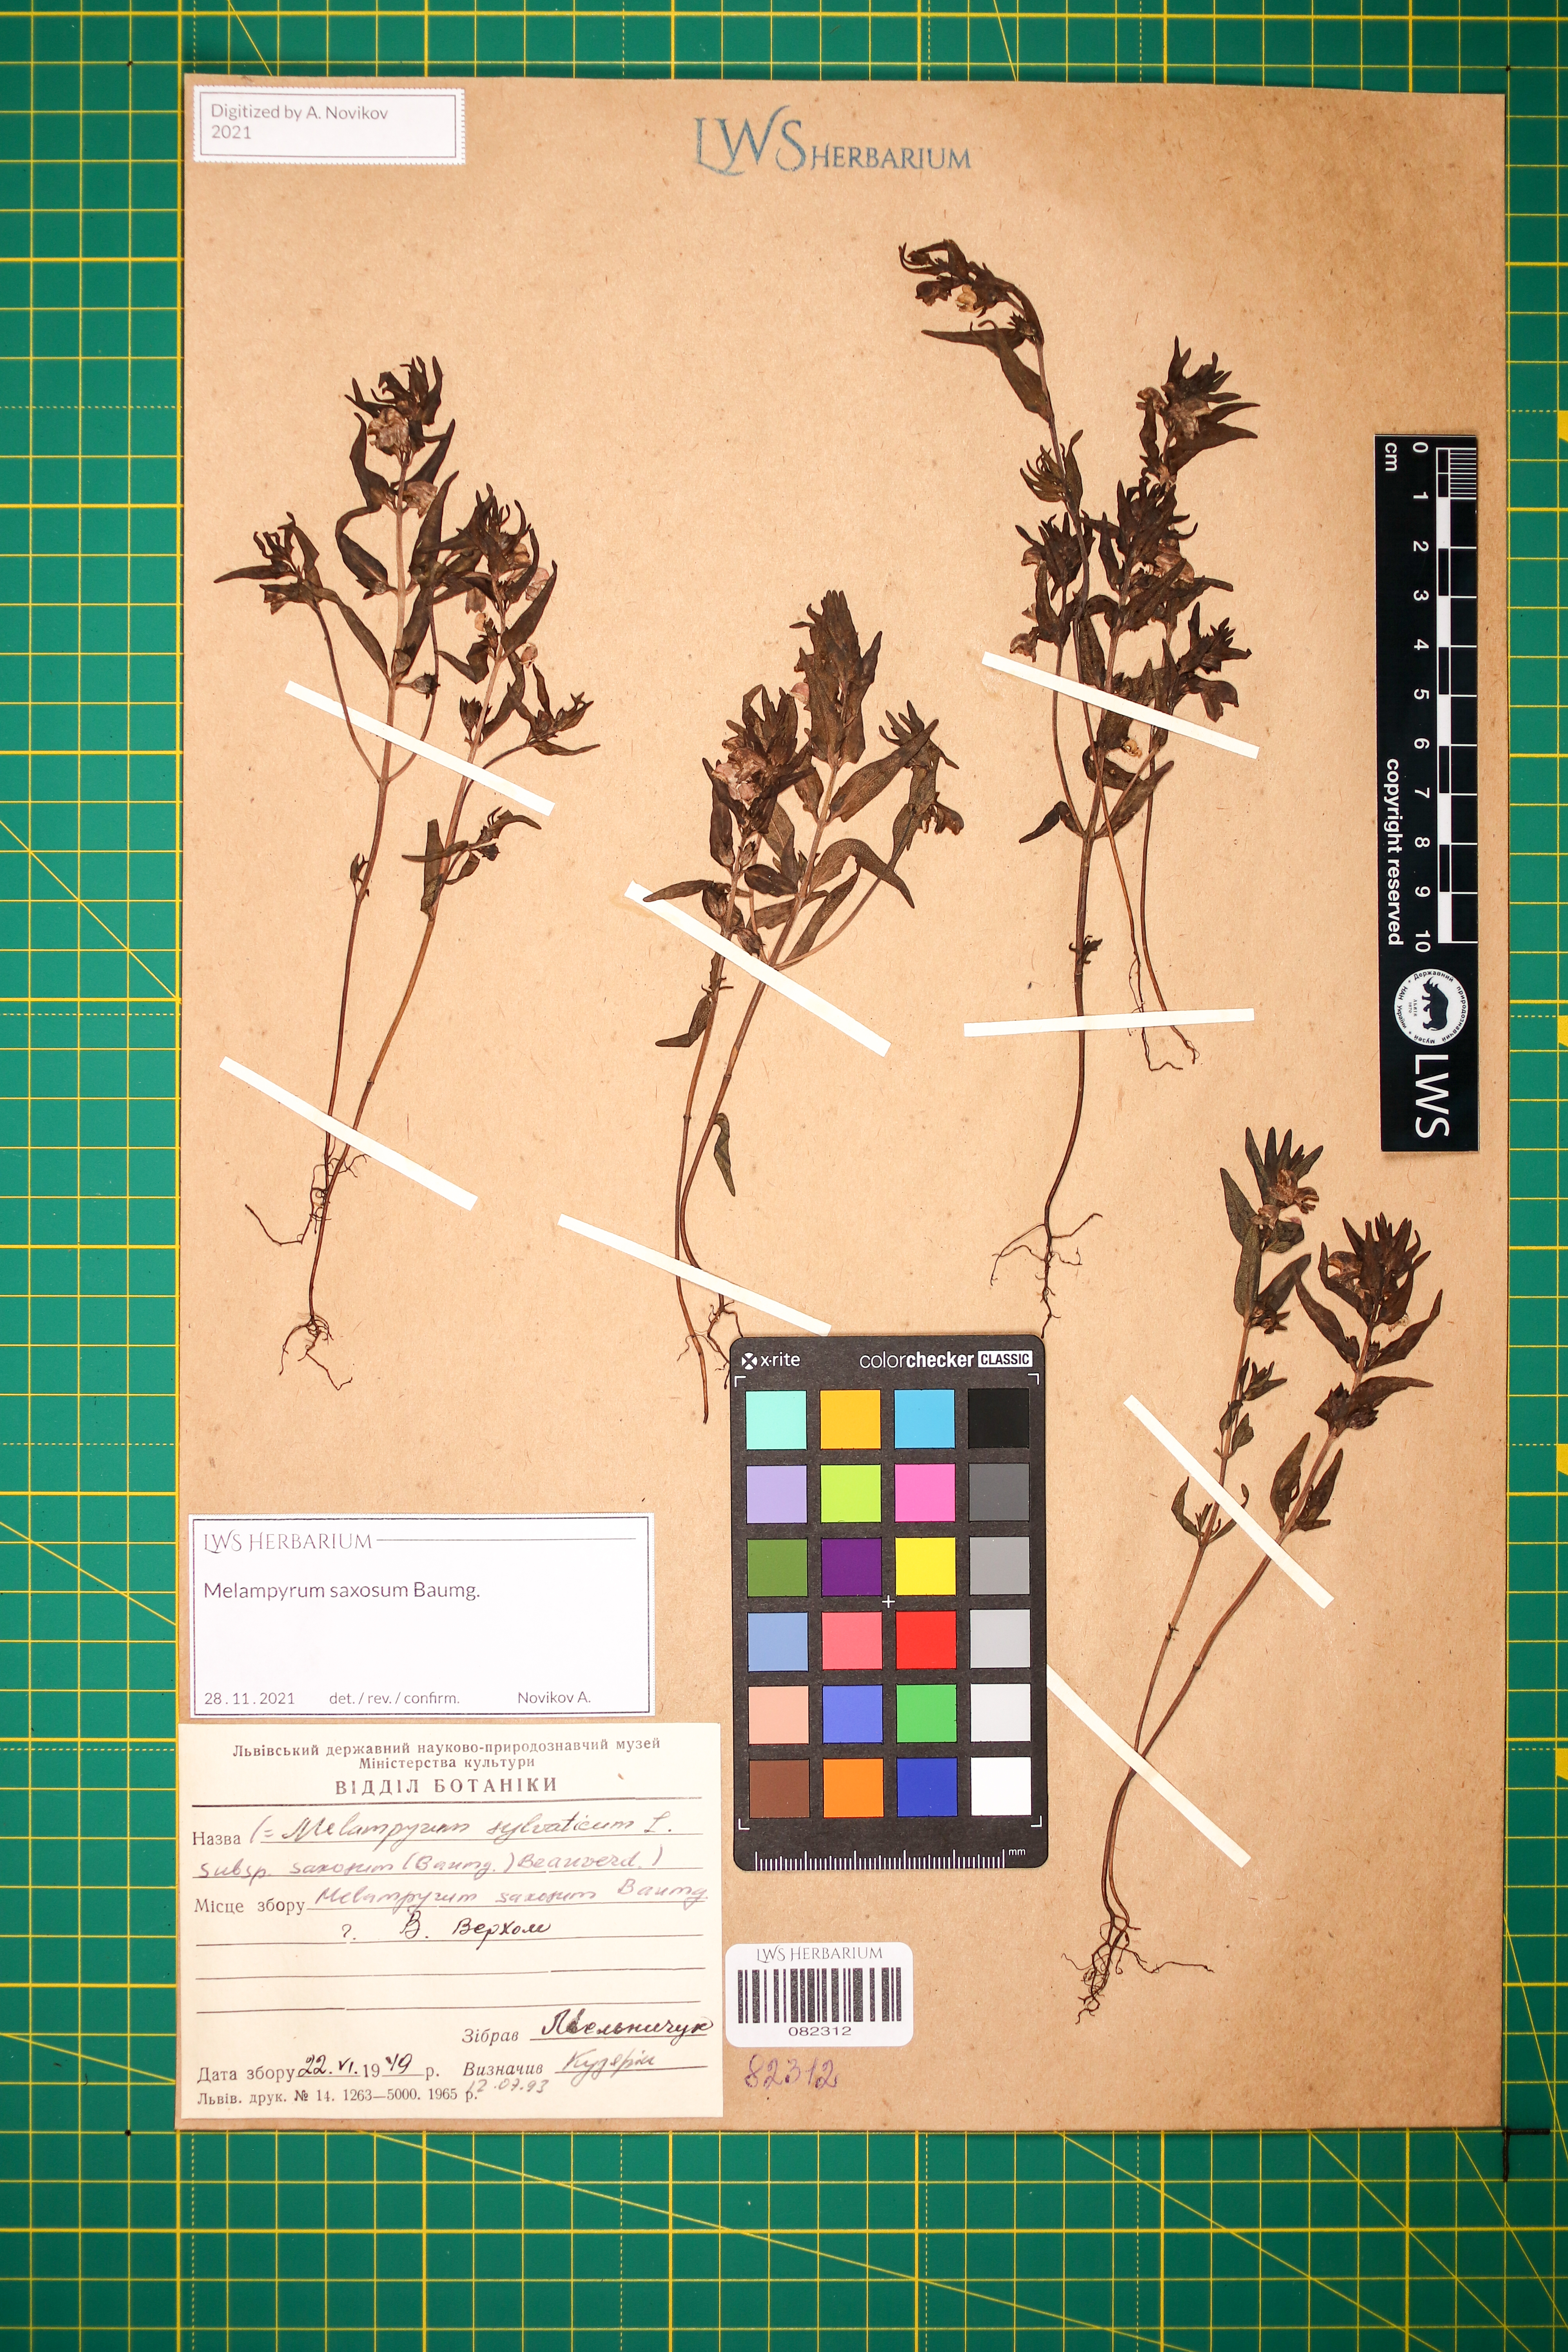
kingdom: Plantae
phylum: Tracheophyta
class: Magnoliopsida
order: Lamiales
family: Orobanchaceae
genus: Melampyrum
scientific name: Melampyrum saxosum
